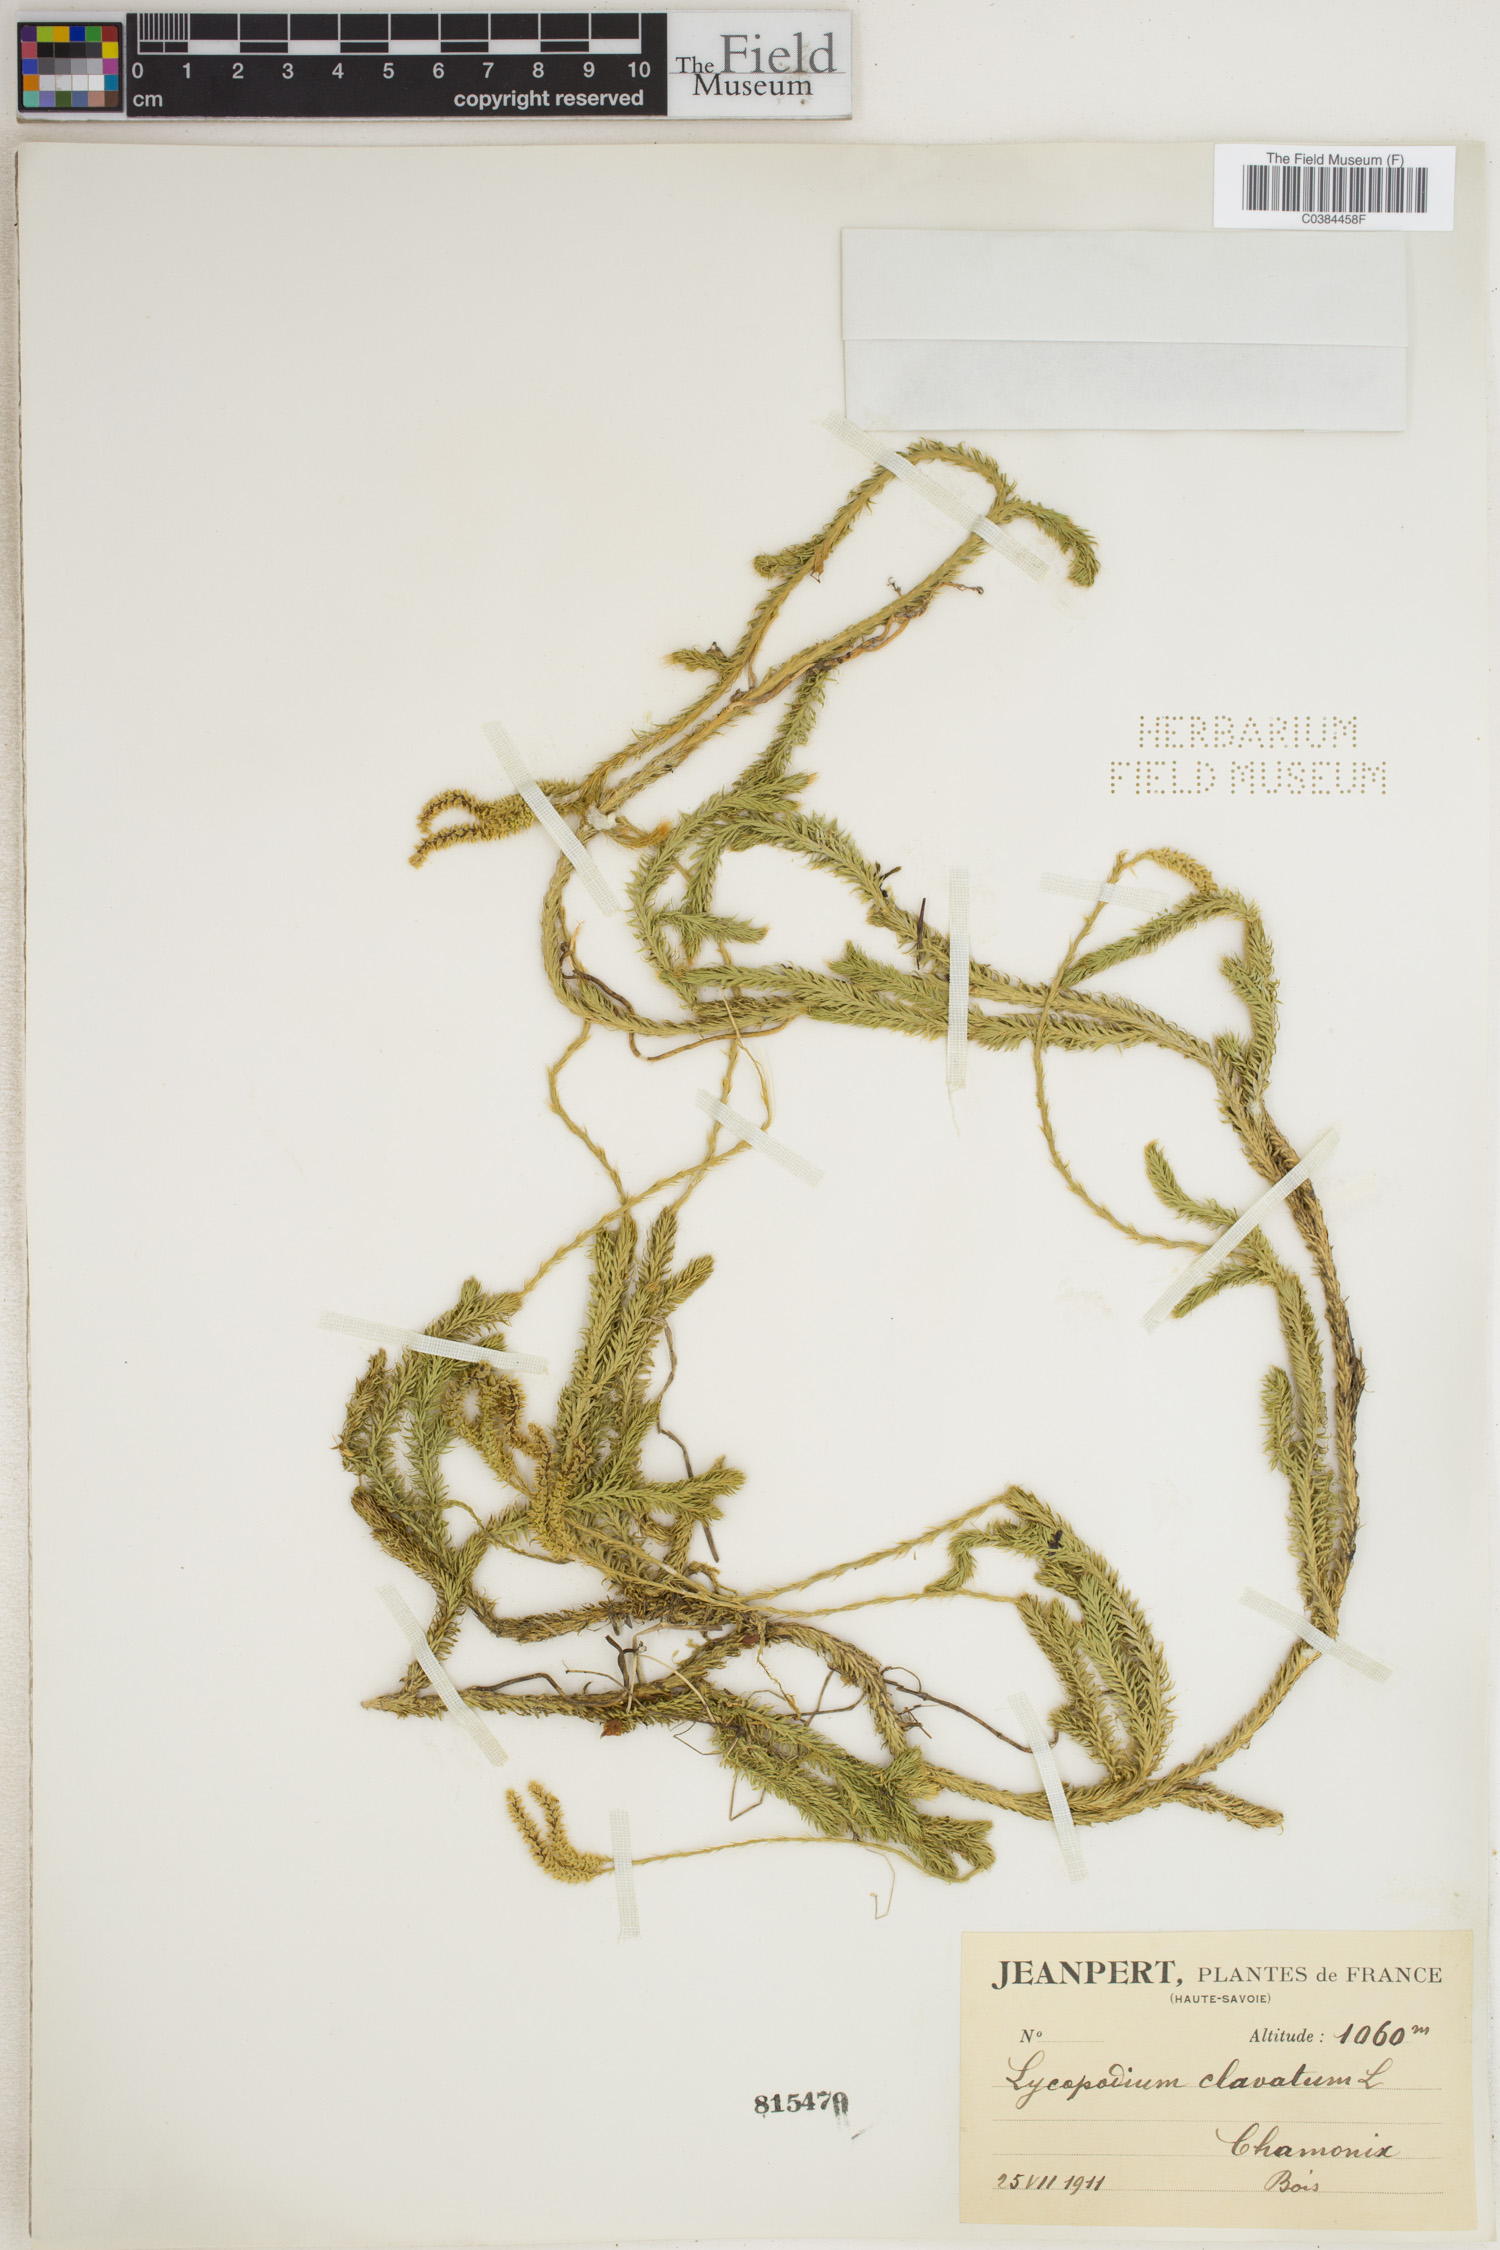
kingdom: Plantae
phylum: Tracheophyta
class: Lycopodiopsida
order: Lycopodiales
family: Lycopodiaceae
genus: Lycopodium
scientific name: Lycopodium clavatum
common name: Stag's-horn clubmoss
